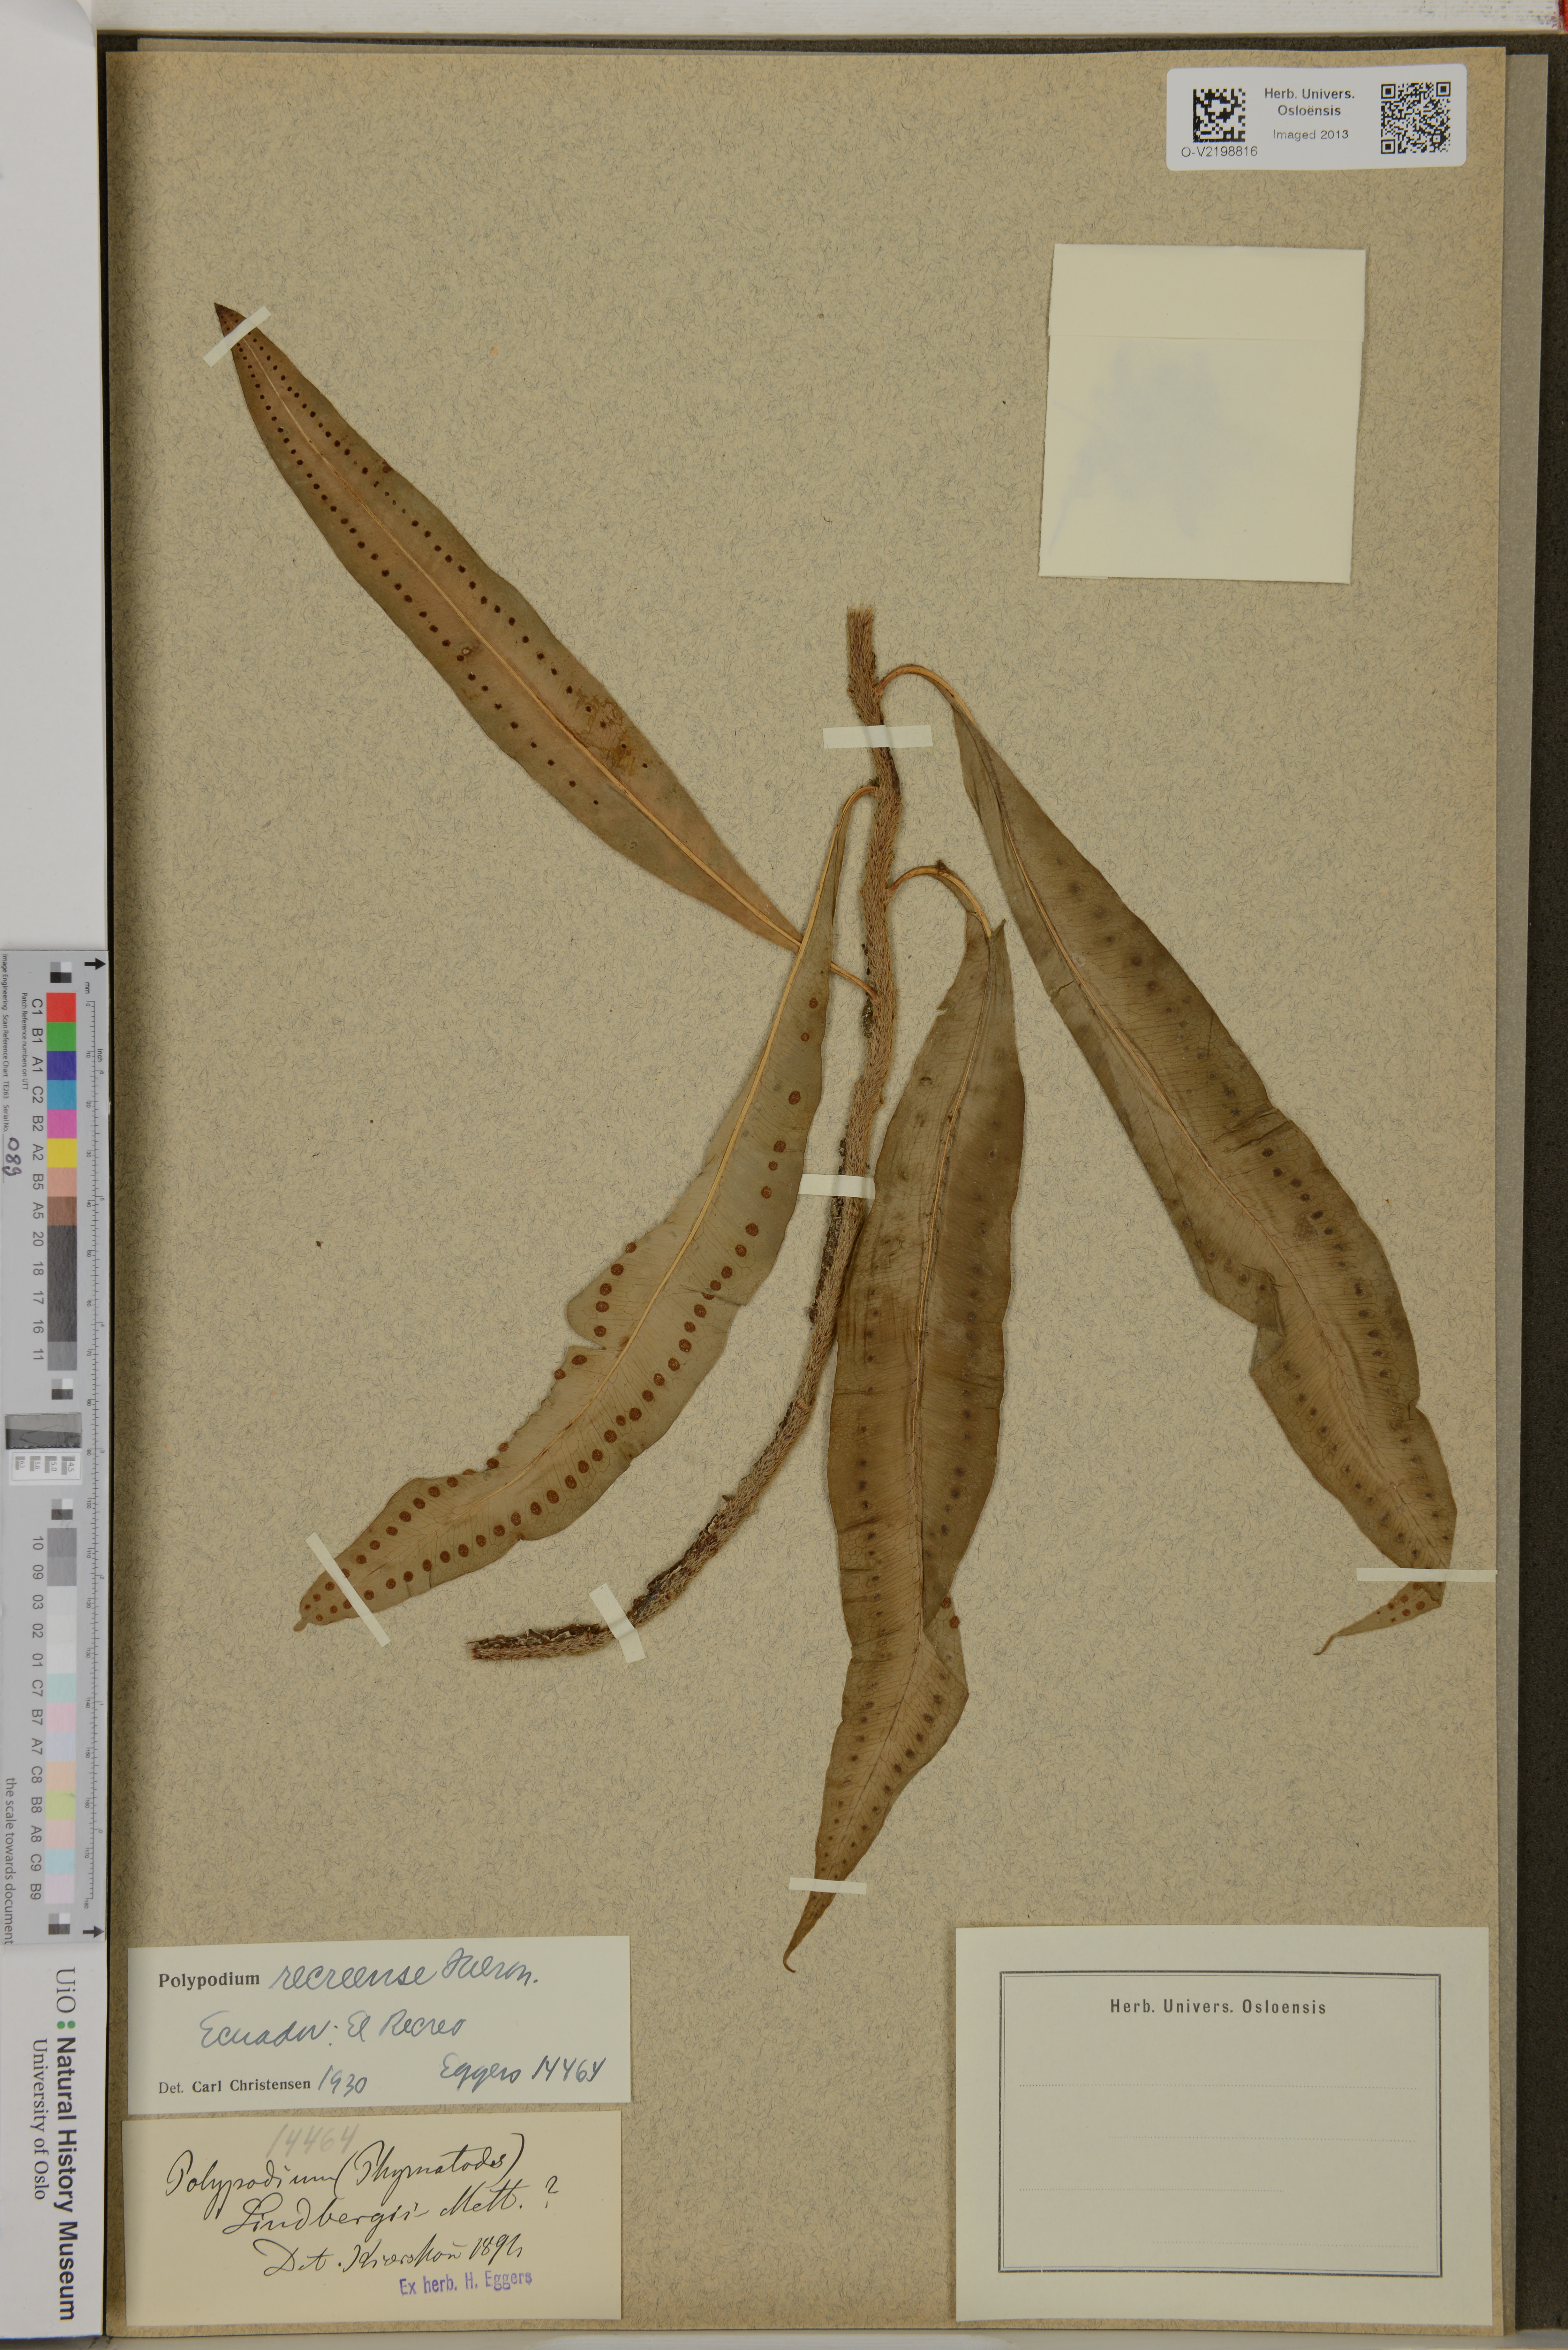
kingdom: Plantae
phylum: Tracheophyta
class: Polypodiopsida
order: Polypodiales
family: Polypodiaceae
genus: Microgramma
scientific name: Microgramma recreense
